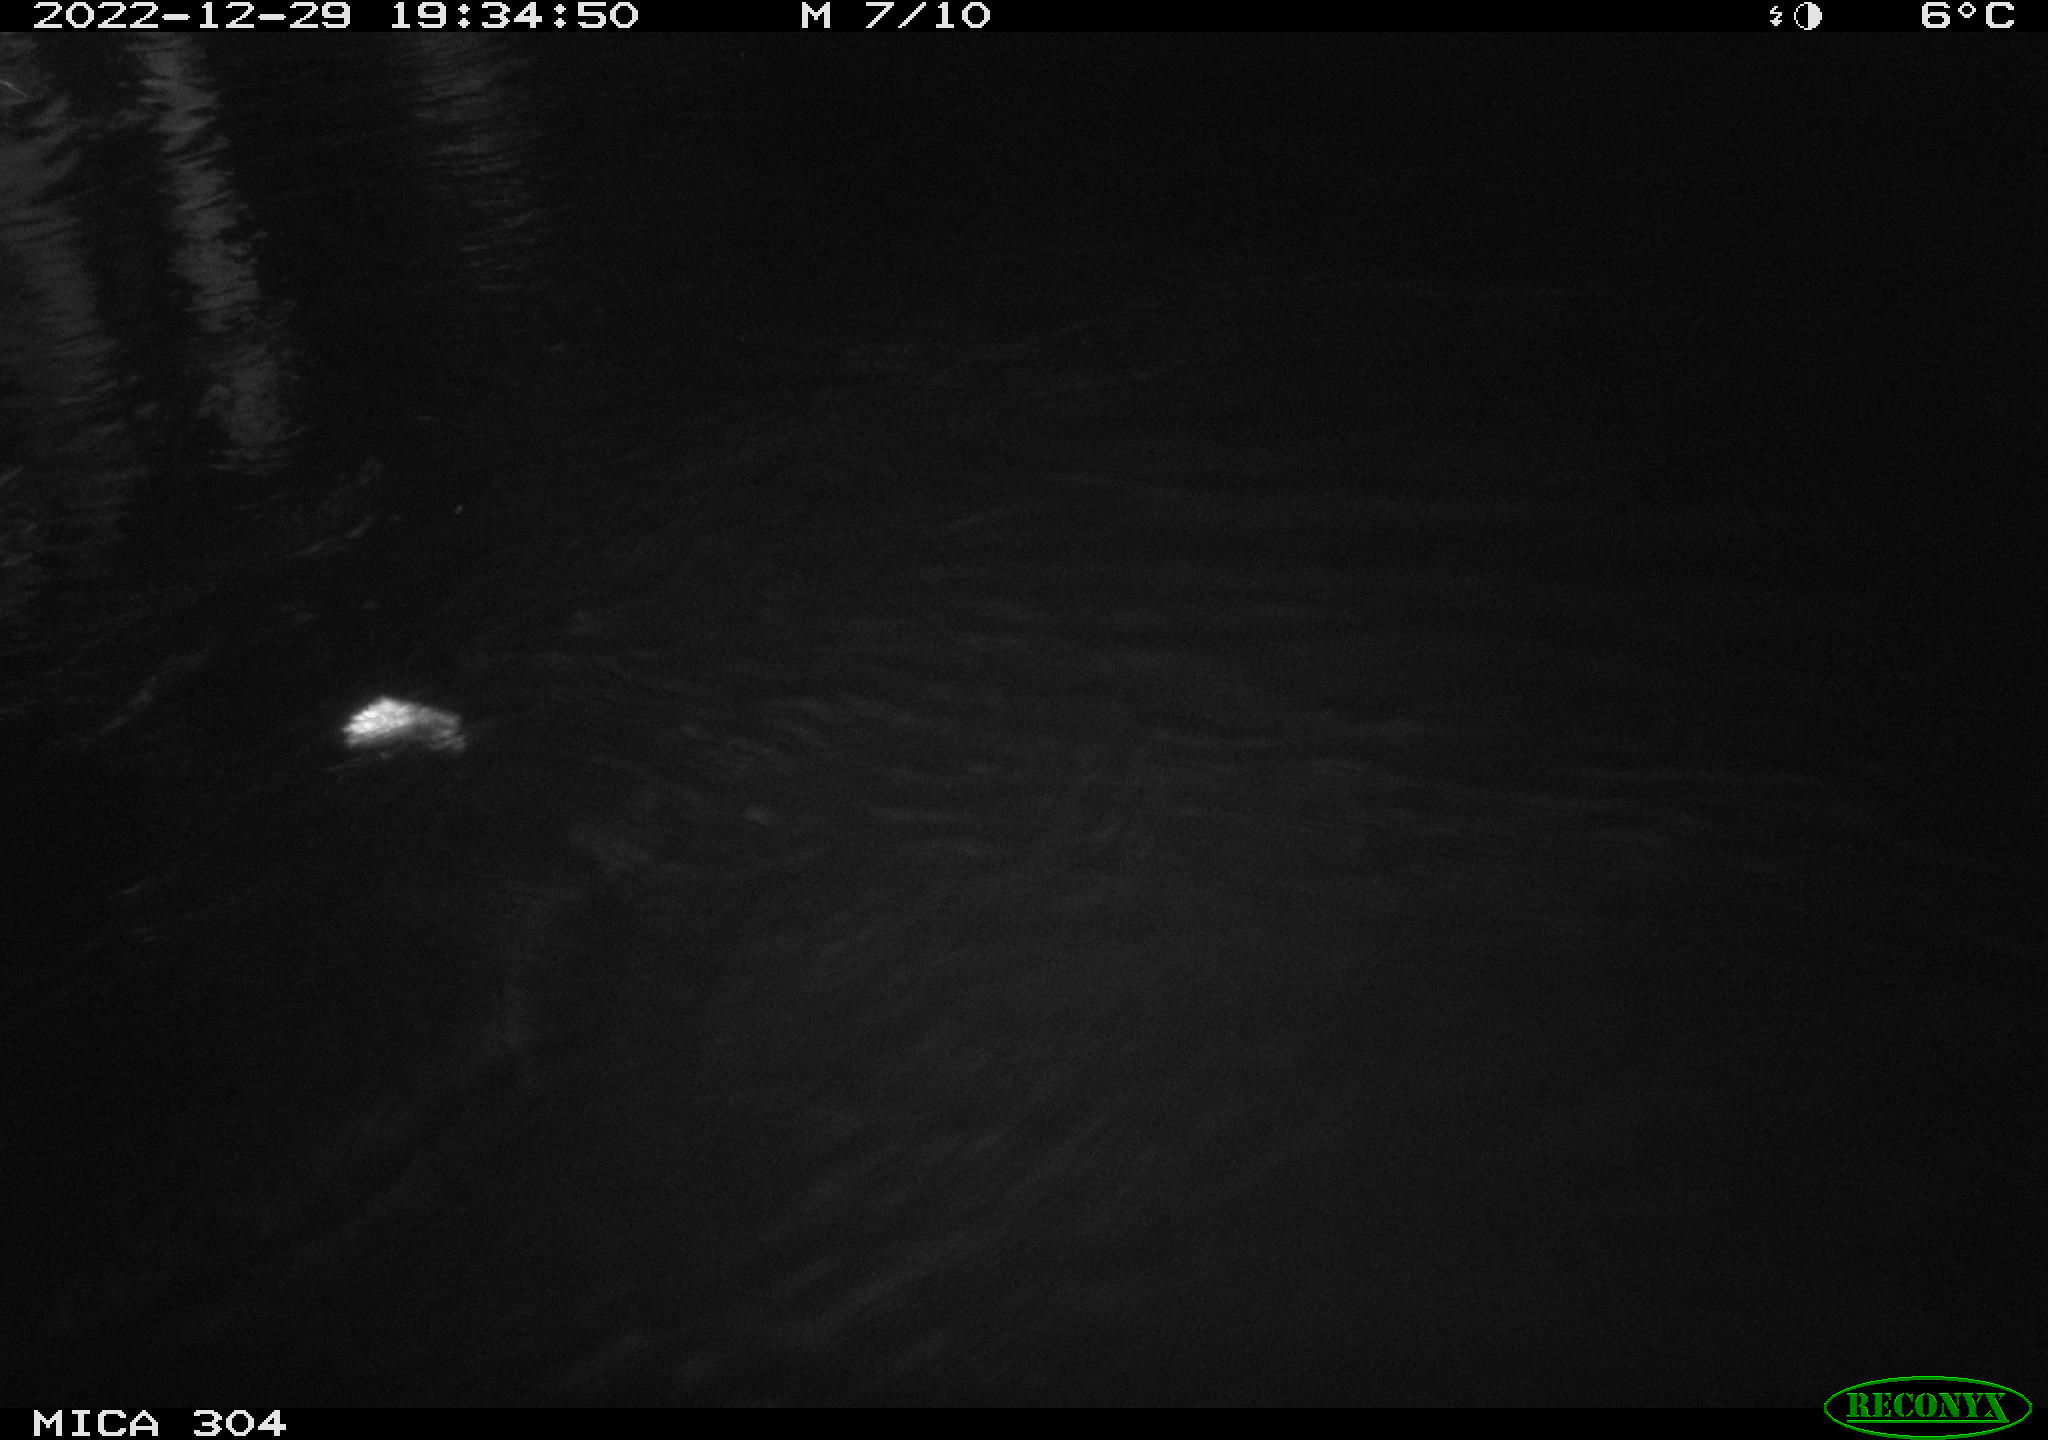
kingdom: Animalia
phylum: Chordata
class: Mammalia
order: Rodentia
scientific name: Rodentia
